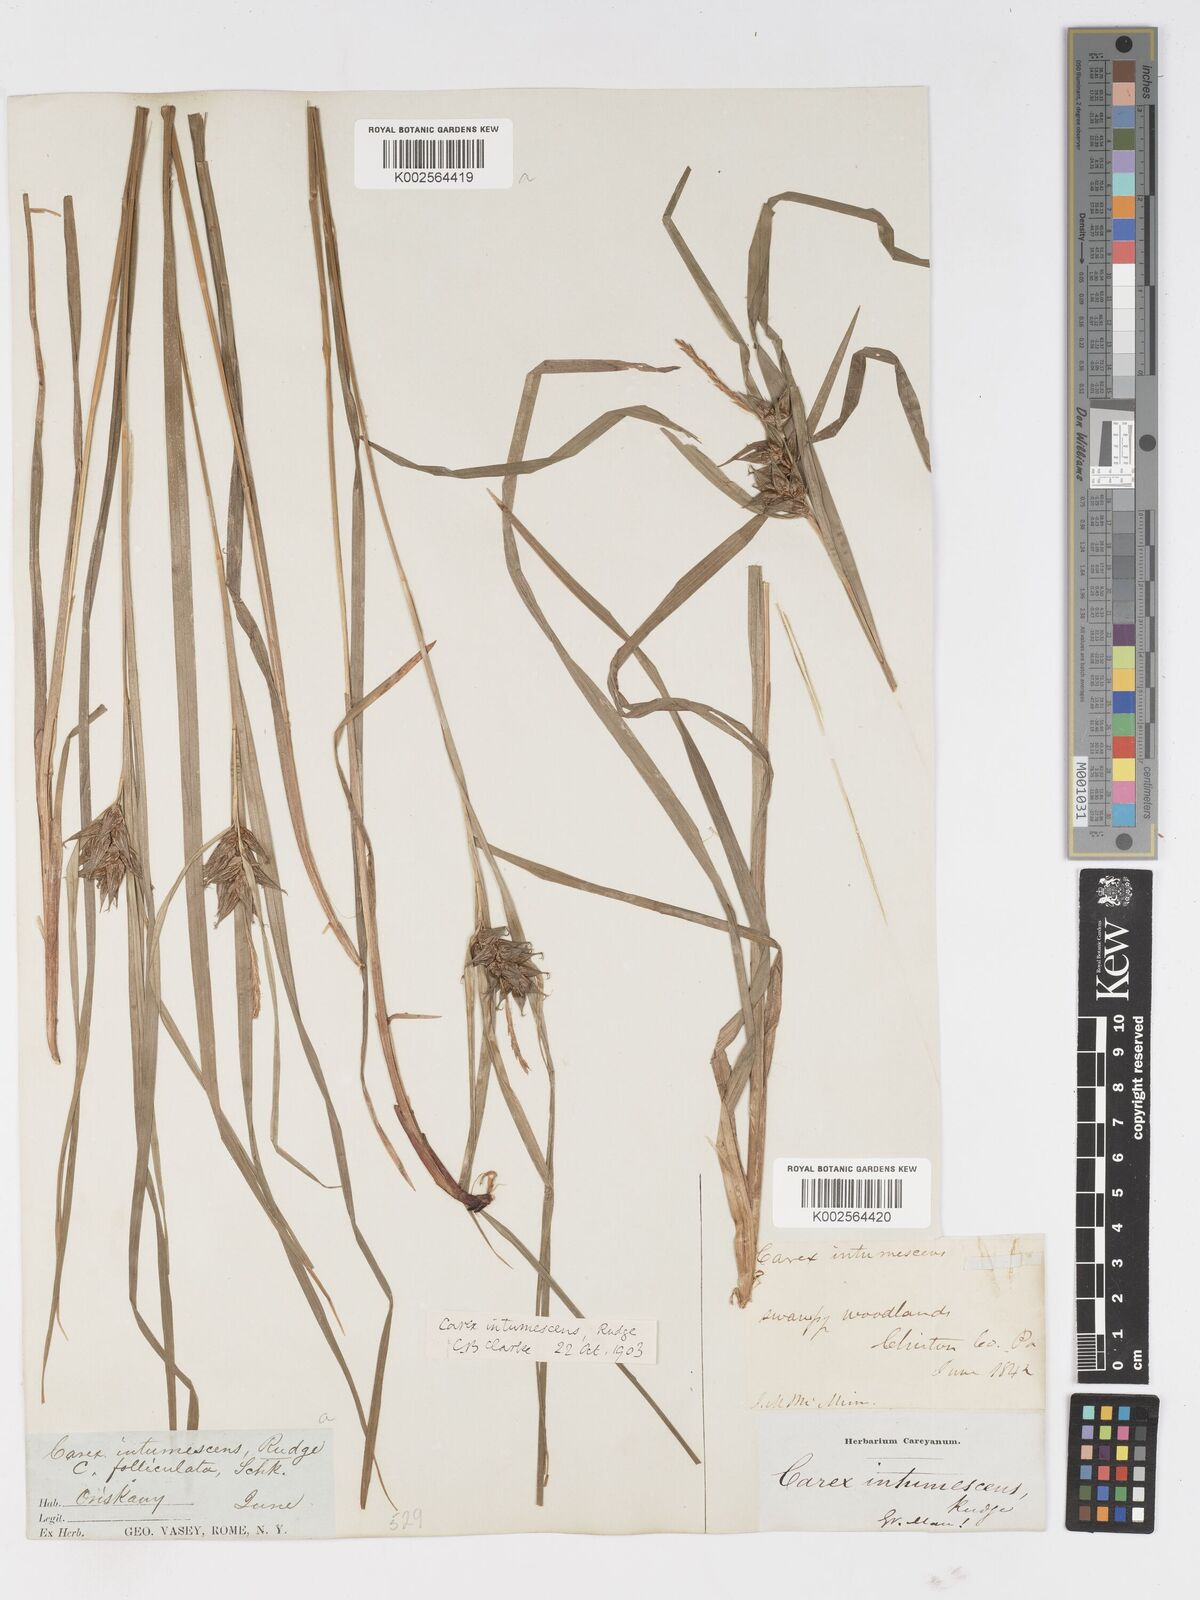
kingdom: Plantae
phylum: Tracheophyta
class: Liliopsida
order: Poales
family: Cyperaceae
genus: Carex
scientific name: Carex intumescens
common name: Greater bladder sedge
